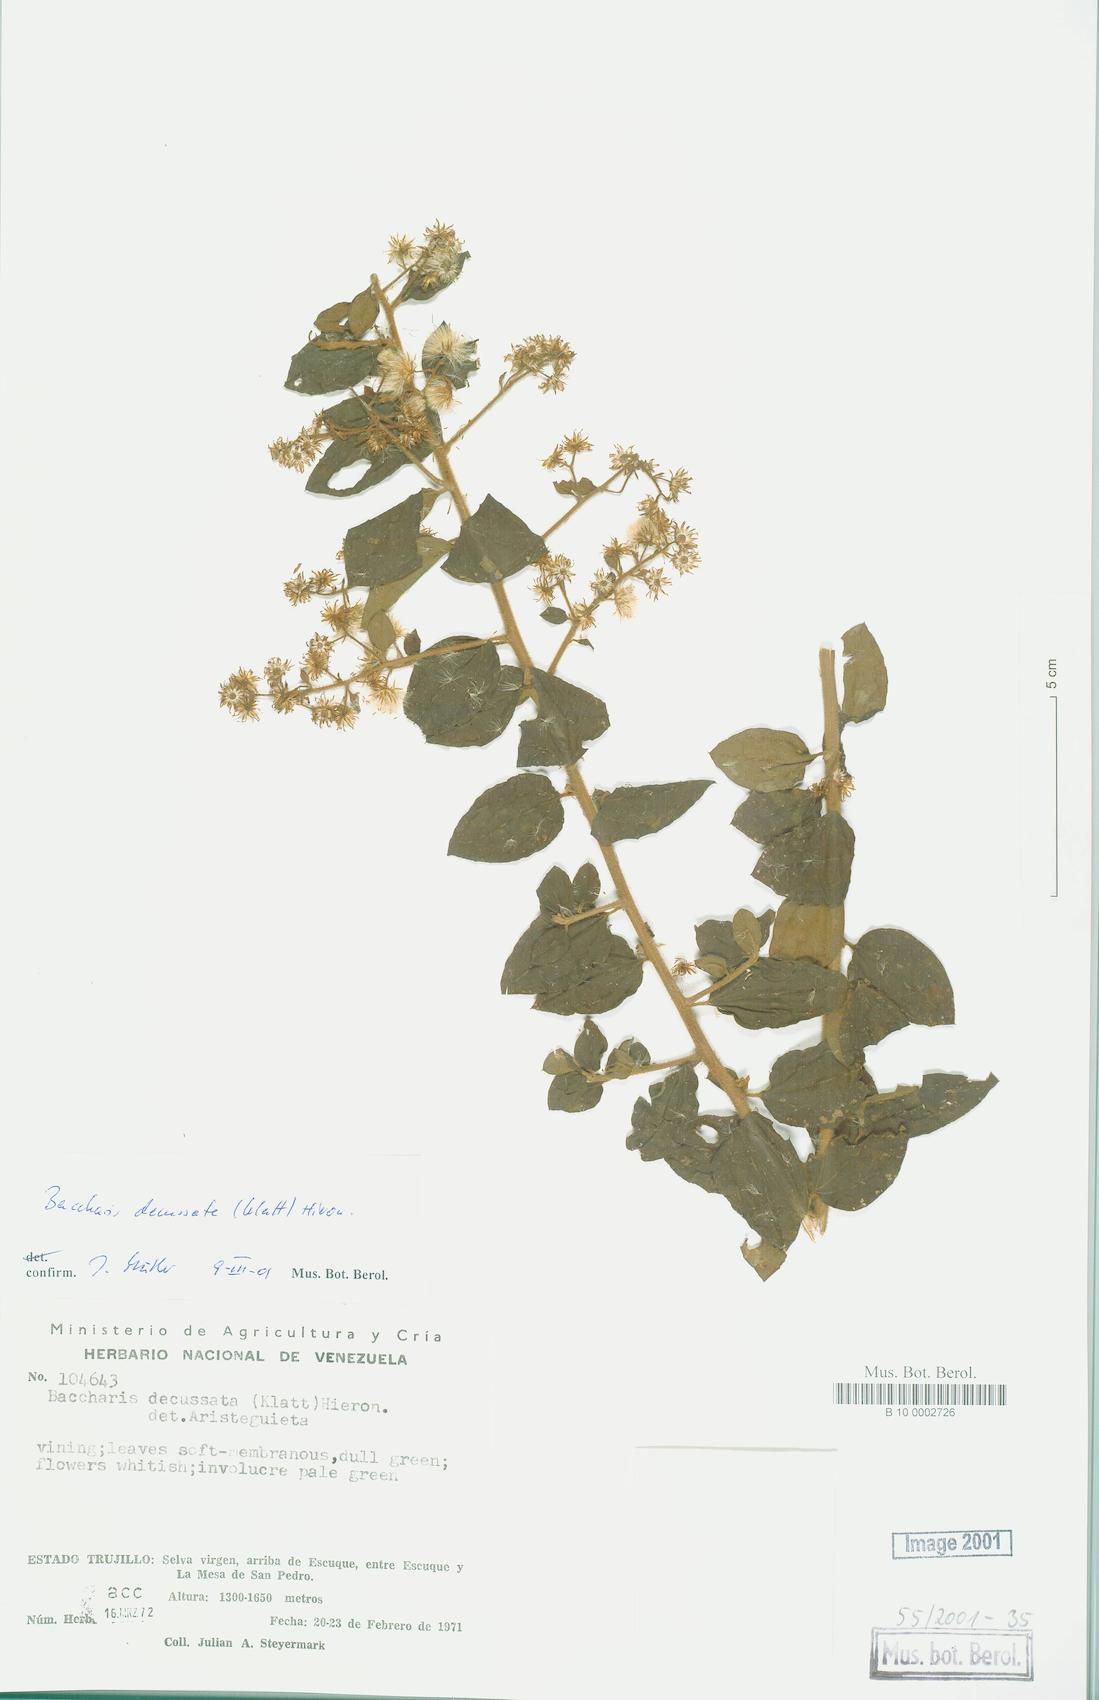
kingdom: Plantae
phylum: Tracheophyta
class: Magnoliopsida
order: Asterales
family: Asteraceae
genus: Baccharis
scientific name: Baccharis decussata
